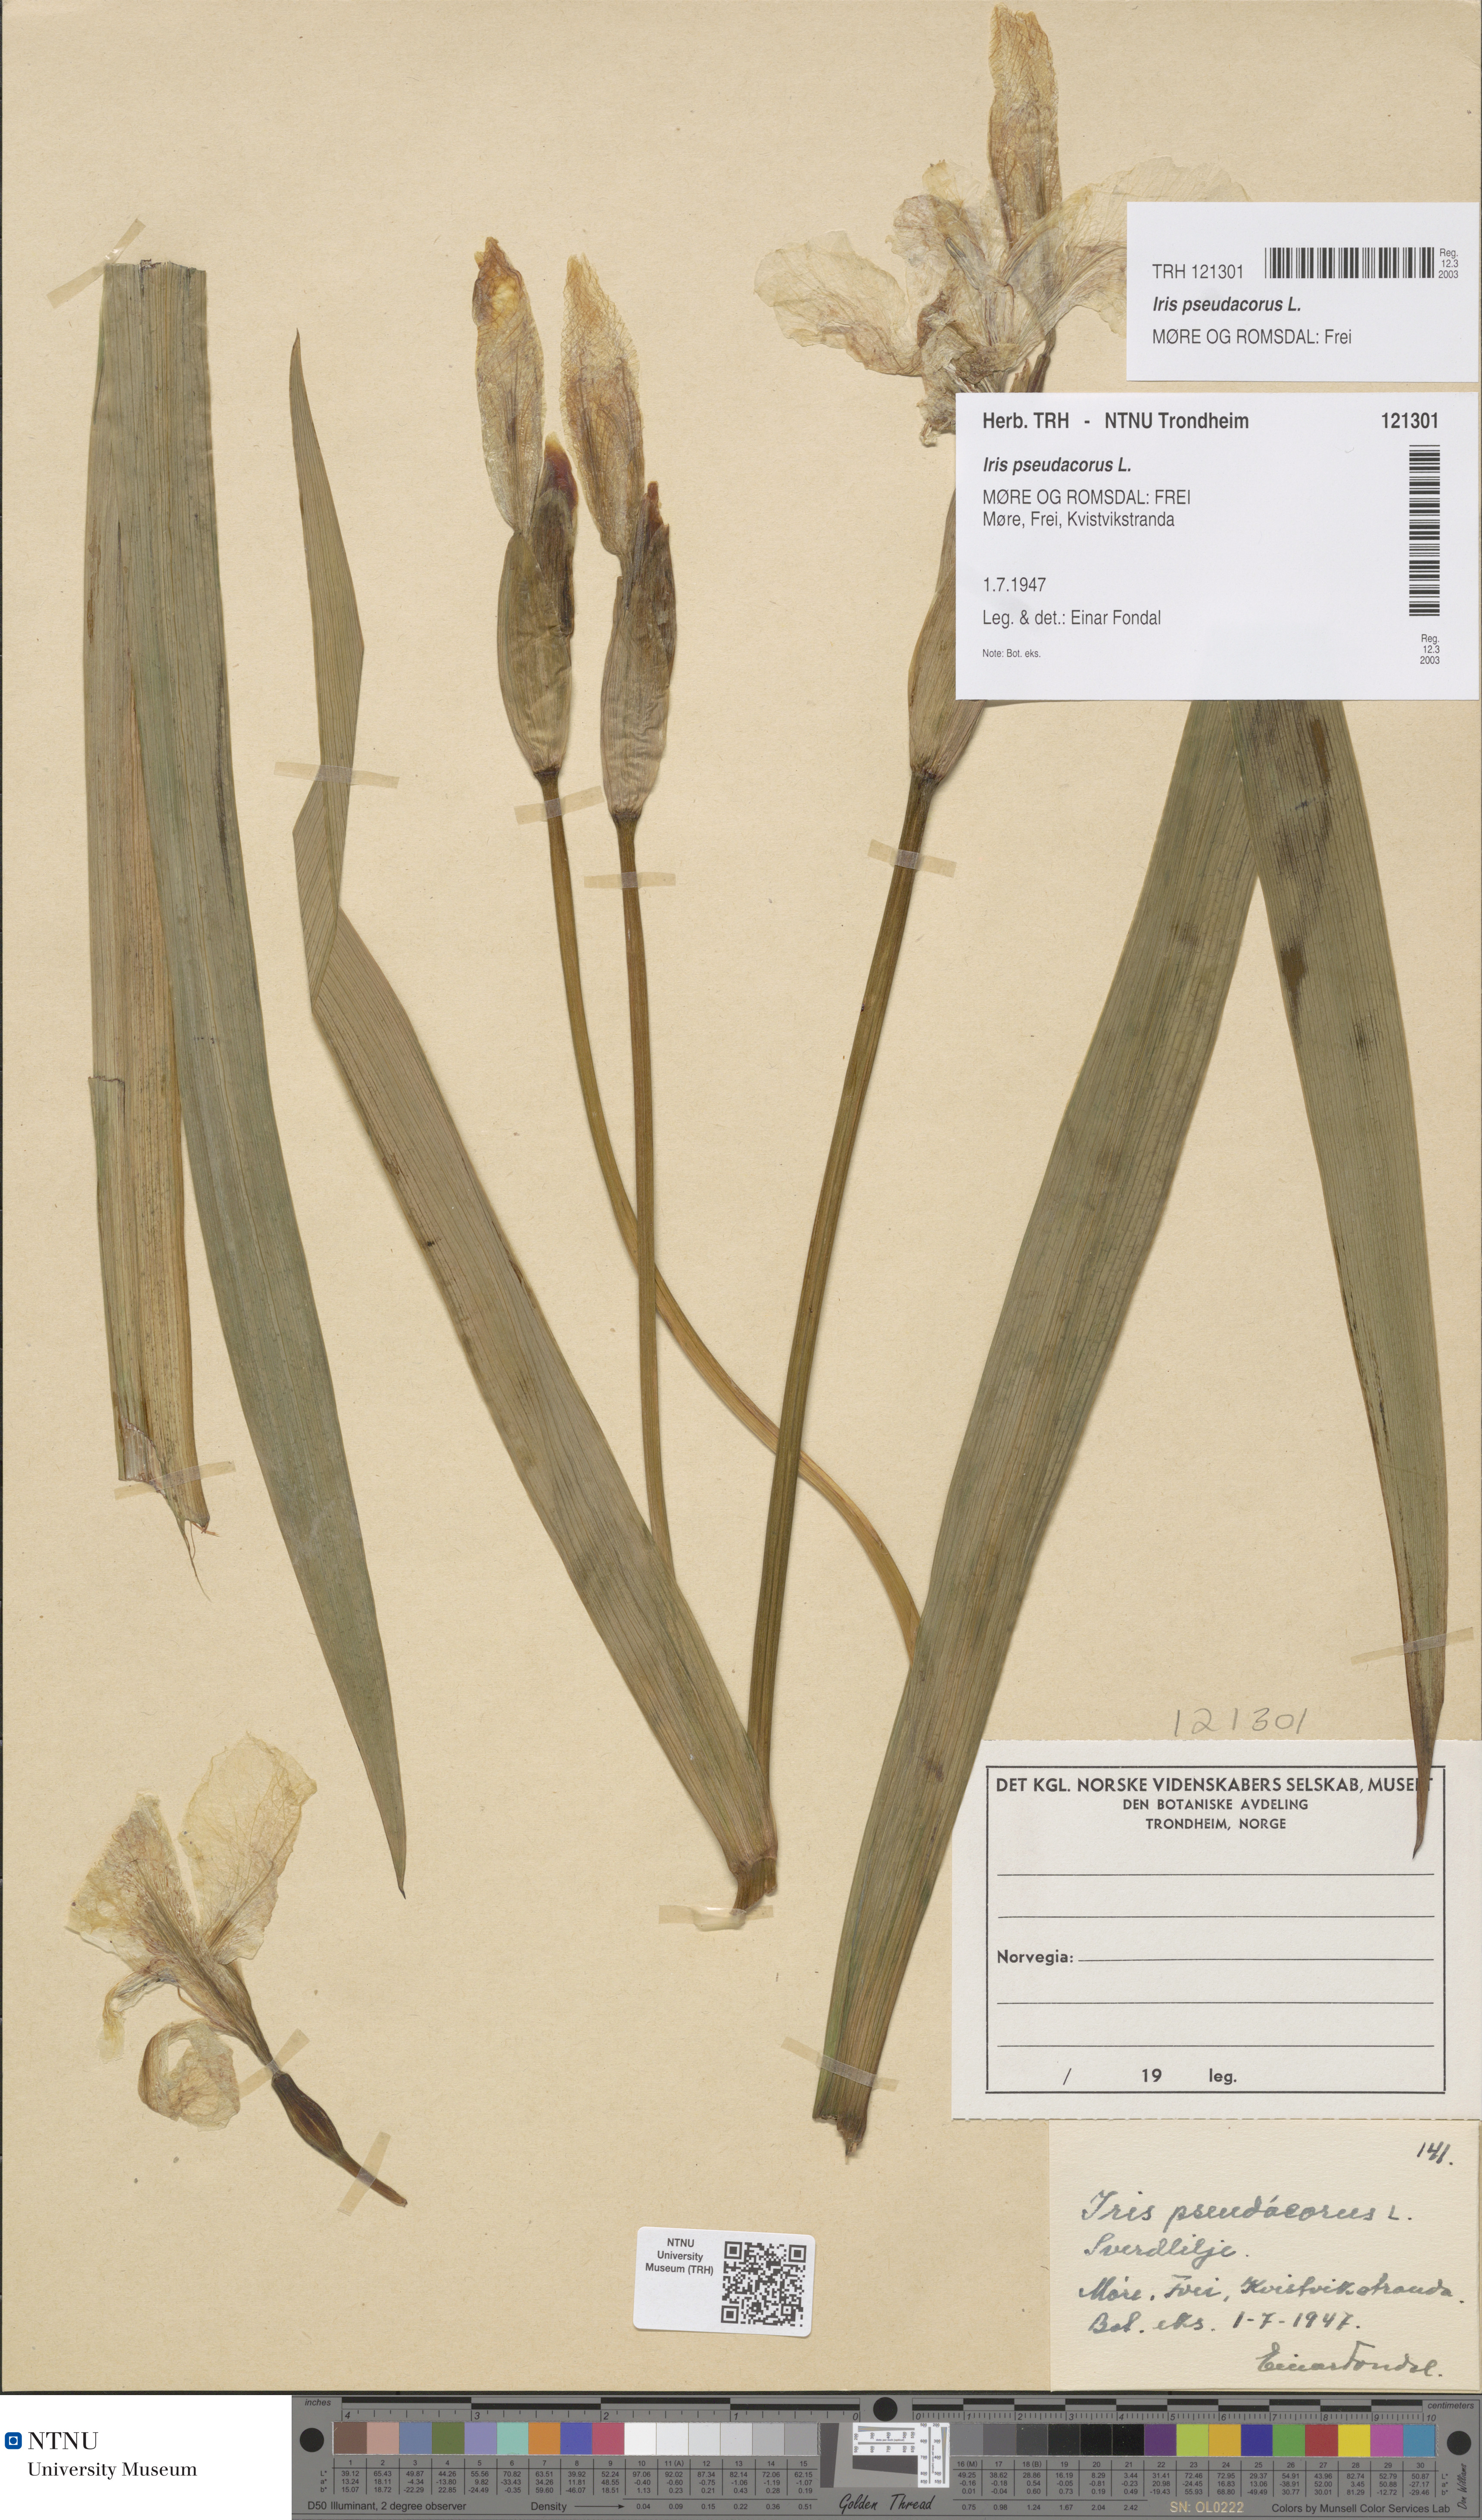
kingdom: Plantae
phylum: Tracheophyta
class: Liliopsida
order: Asparagales
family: Iridaceae
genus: Iris
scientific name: Iris pseudacorus
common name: Yellow flag
